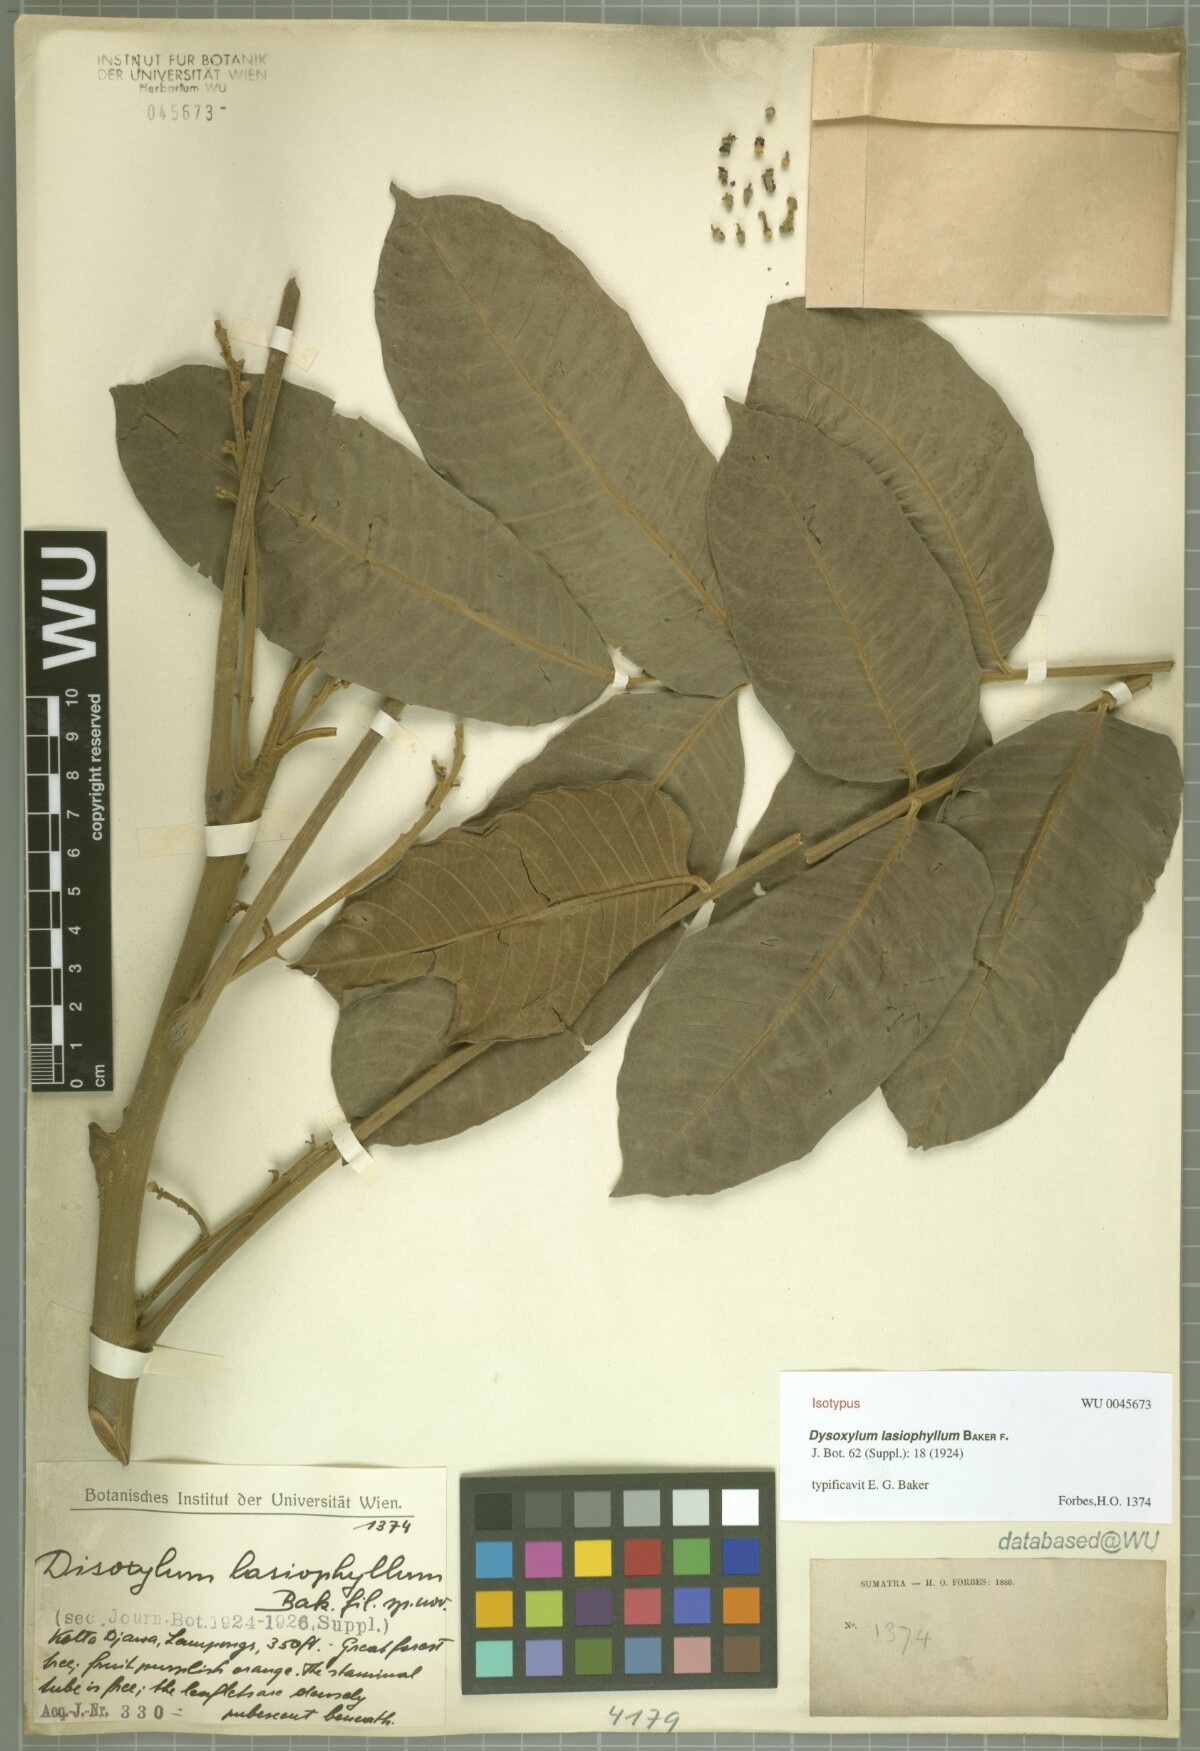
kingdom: Plantae
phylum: Tracheophyta
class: Magnoliopsida
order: Sapindales
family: Meliaceae
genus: Dysoxylum
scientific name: Dysoxylum grande
